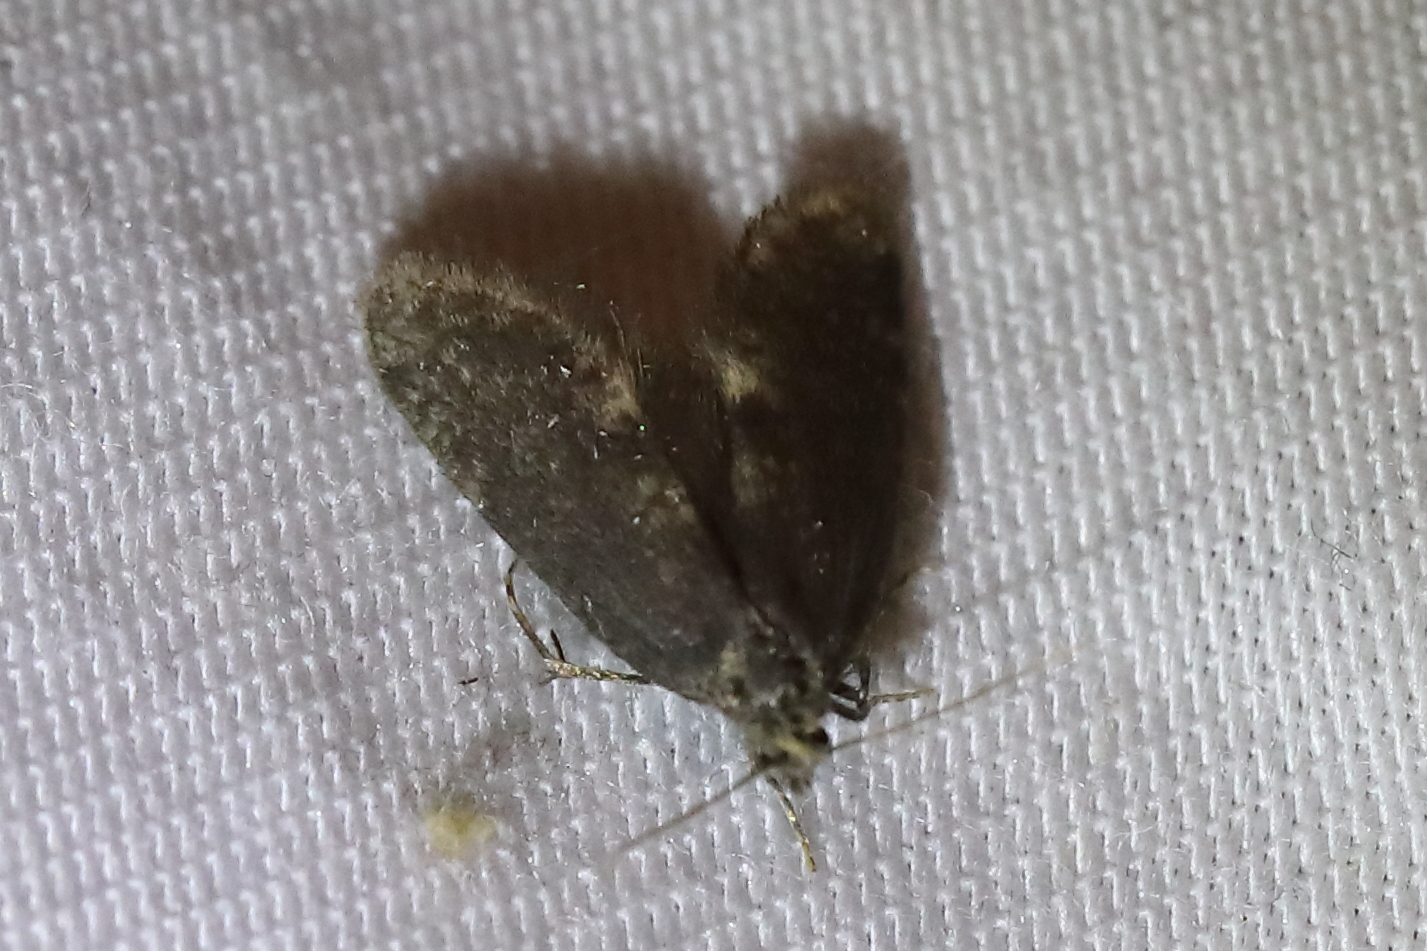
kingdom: Animalia
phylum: Arthropoda
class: Insecta
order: Lepidoptera
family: Psychidae
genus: Taleporia
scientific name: Taleporia tubulosa
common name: Brown smoke
